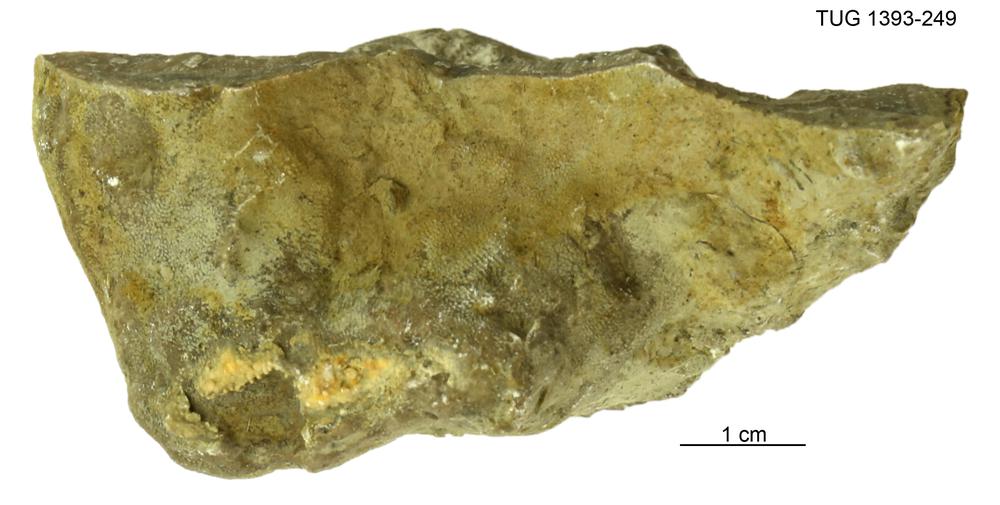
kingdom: Animalia
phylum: Bryozoa
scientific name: Bryozoa
